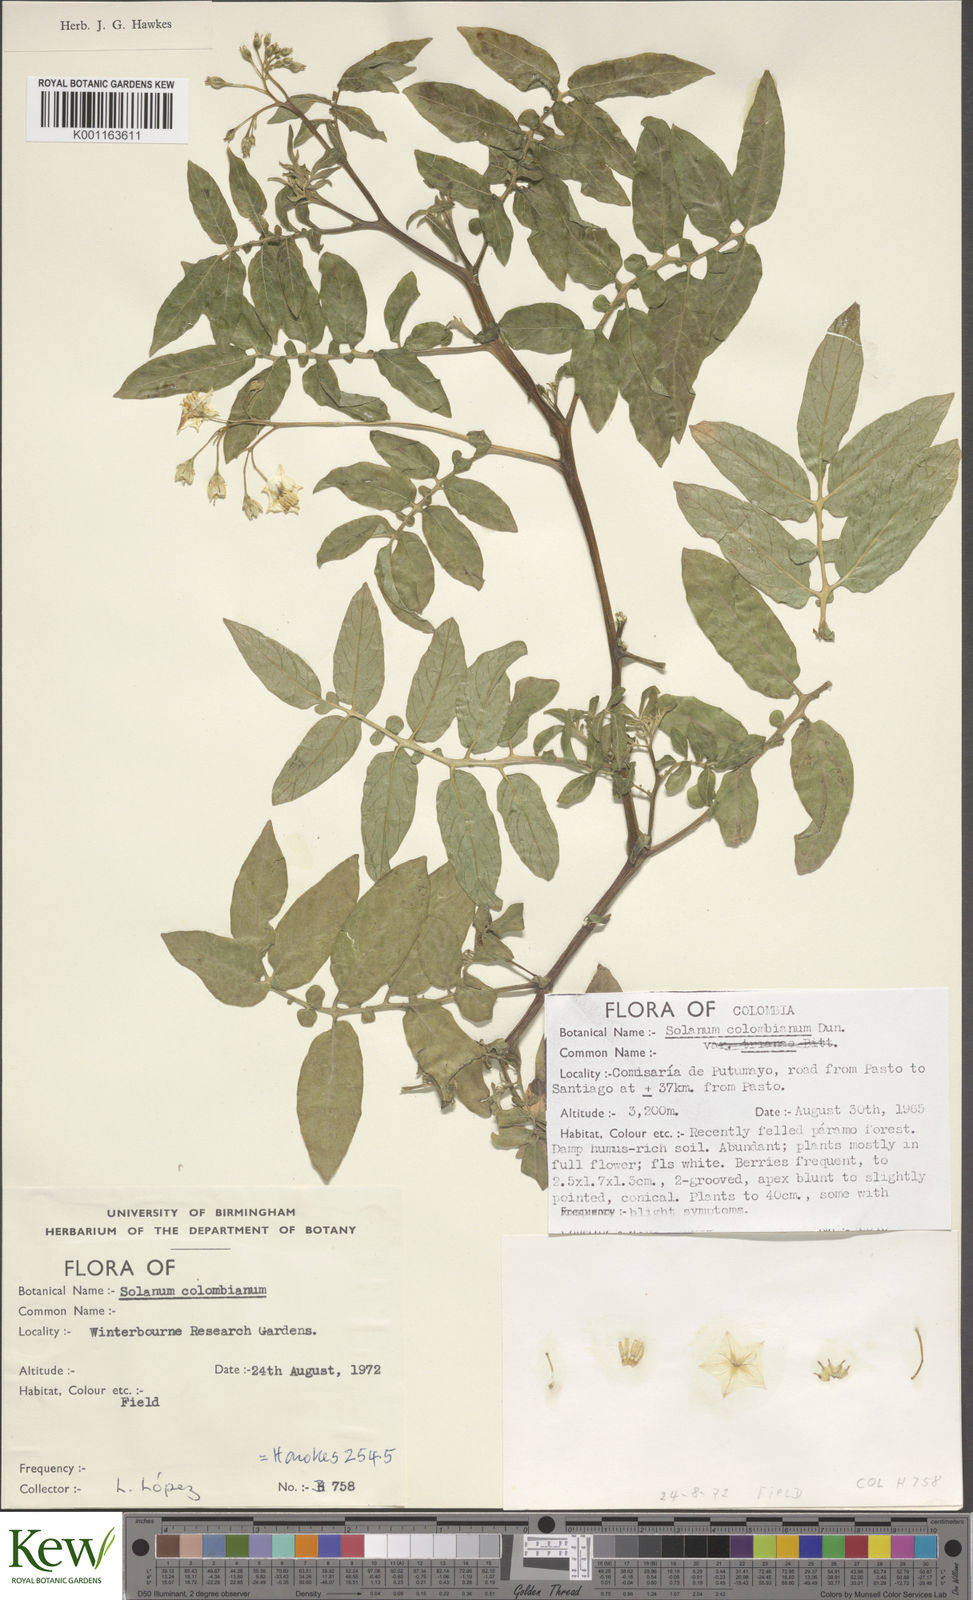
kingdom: Plantae
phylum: Tracheophyta
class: Magnoliopsida
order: Solanales
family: Solanaceae
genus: Solanum
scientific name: Solanum colombianum
